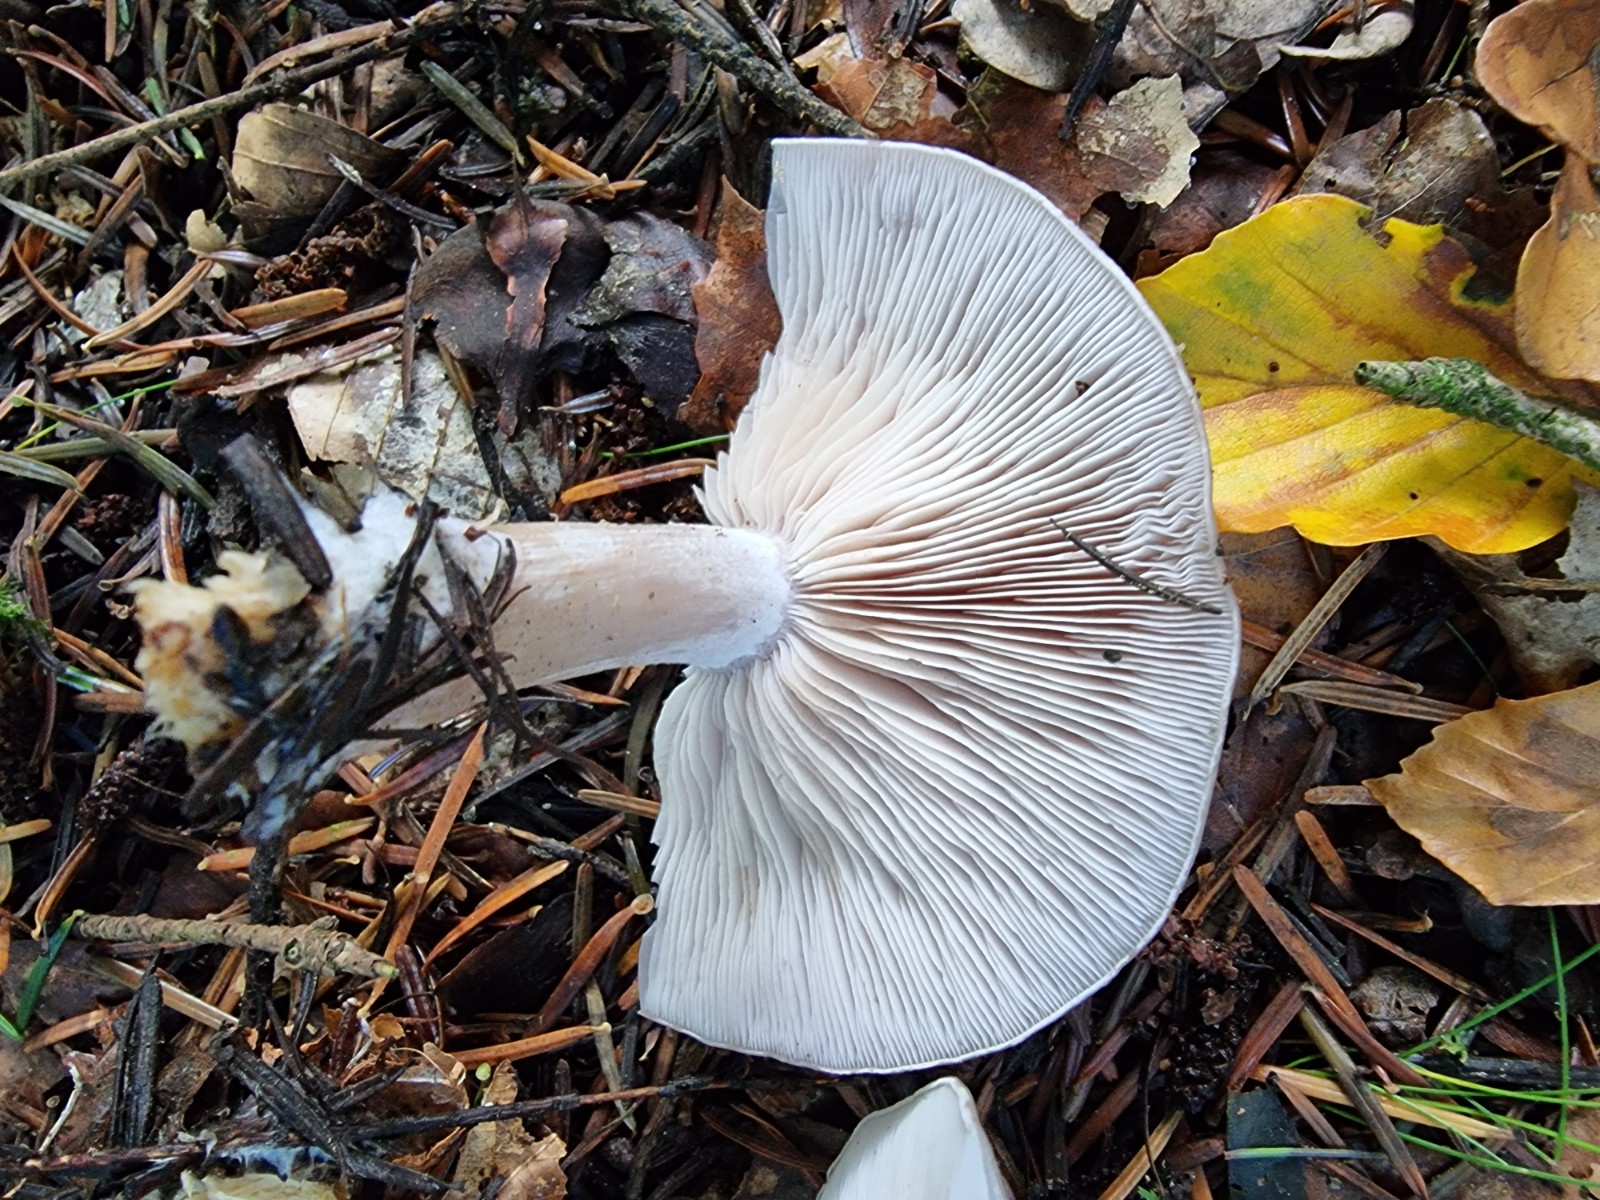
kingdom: Fungi
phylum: Basidiomycota
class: Agaricomycetes
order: Agaricales
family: Tricholomataceae
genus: Lepista
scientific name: Lepista nuda
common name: violet hekseringshat
